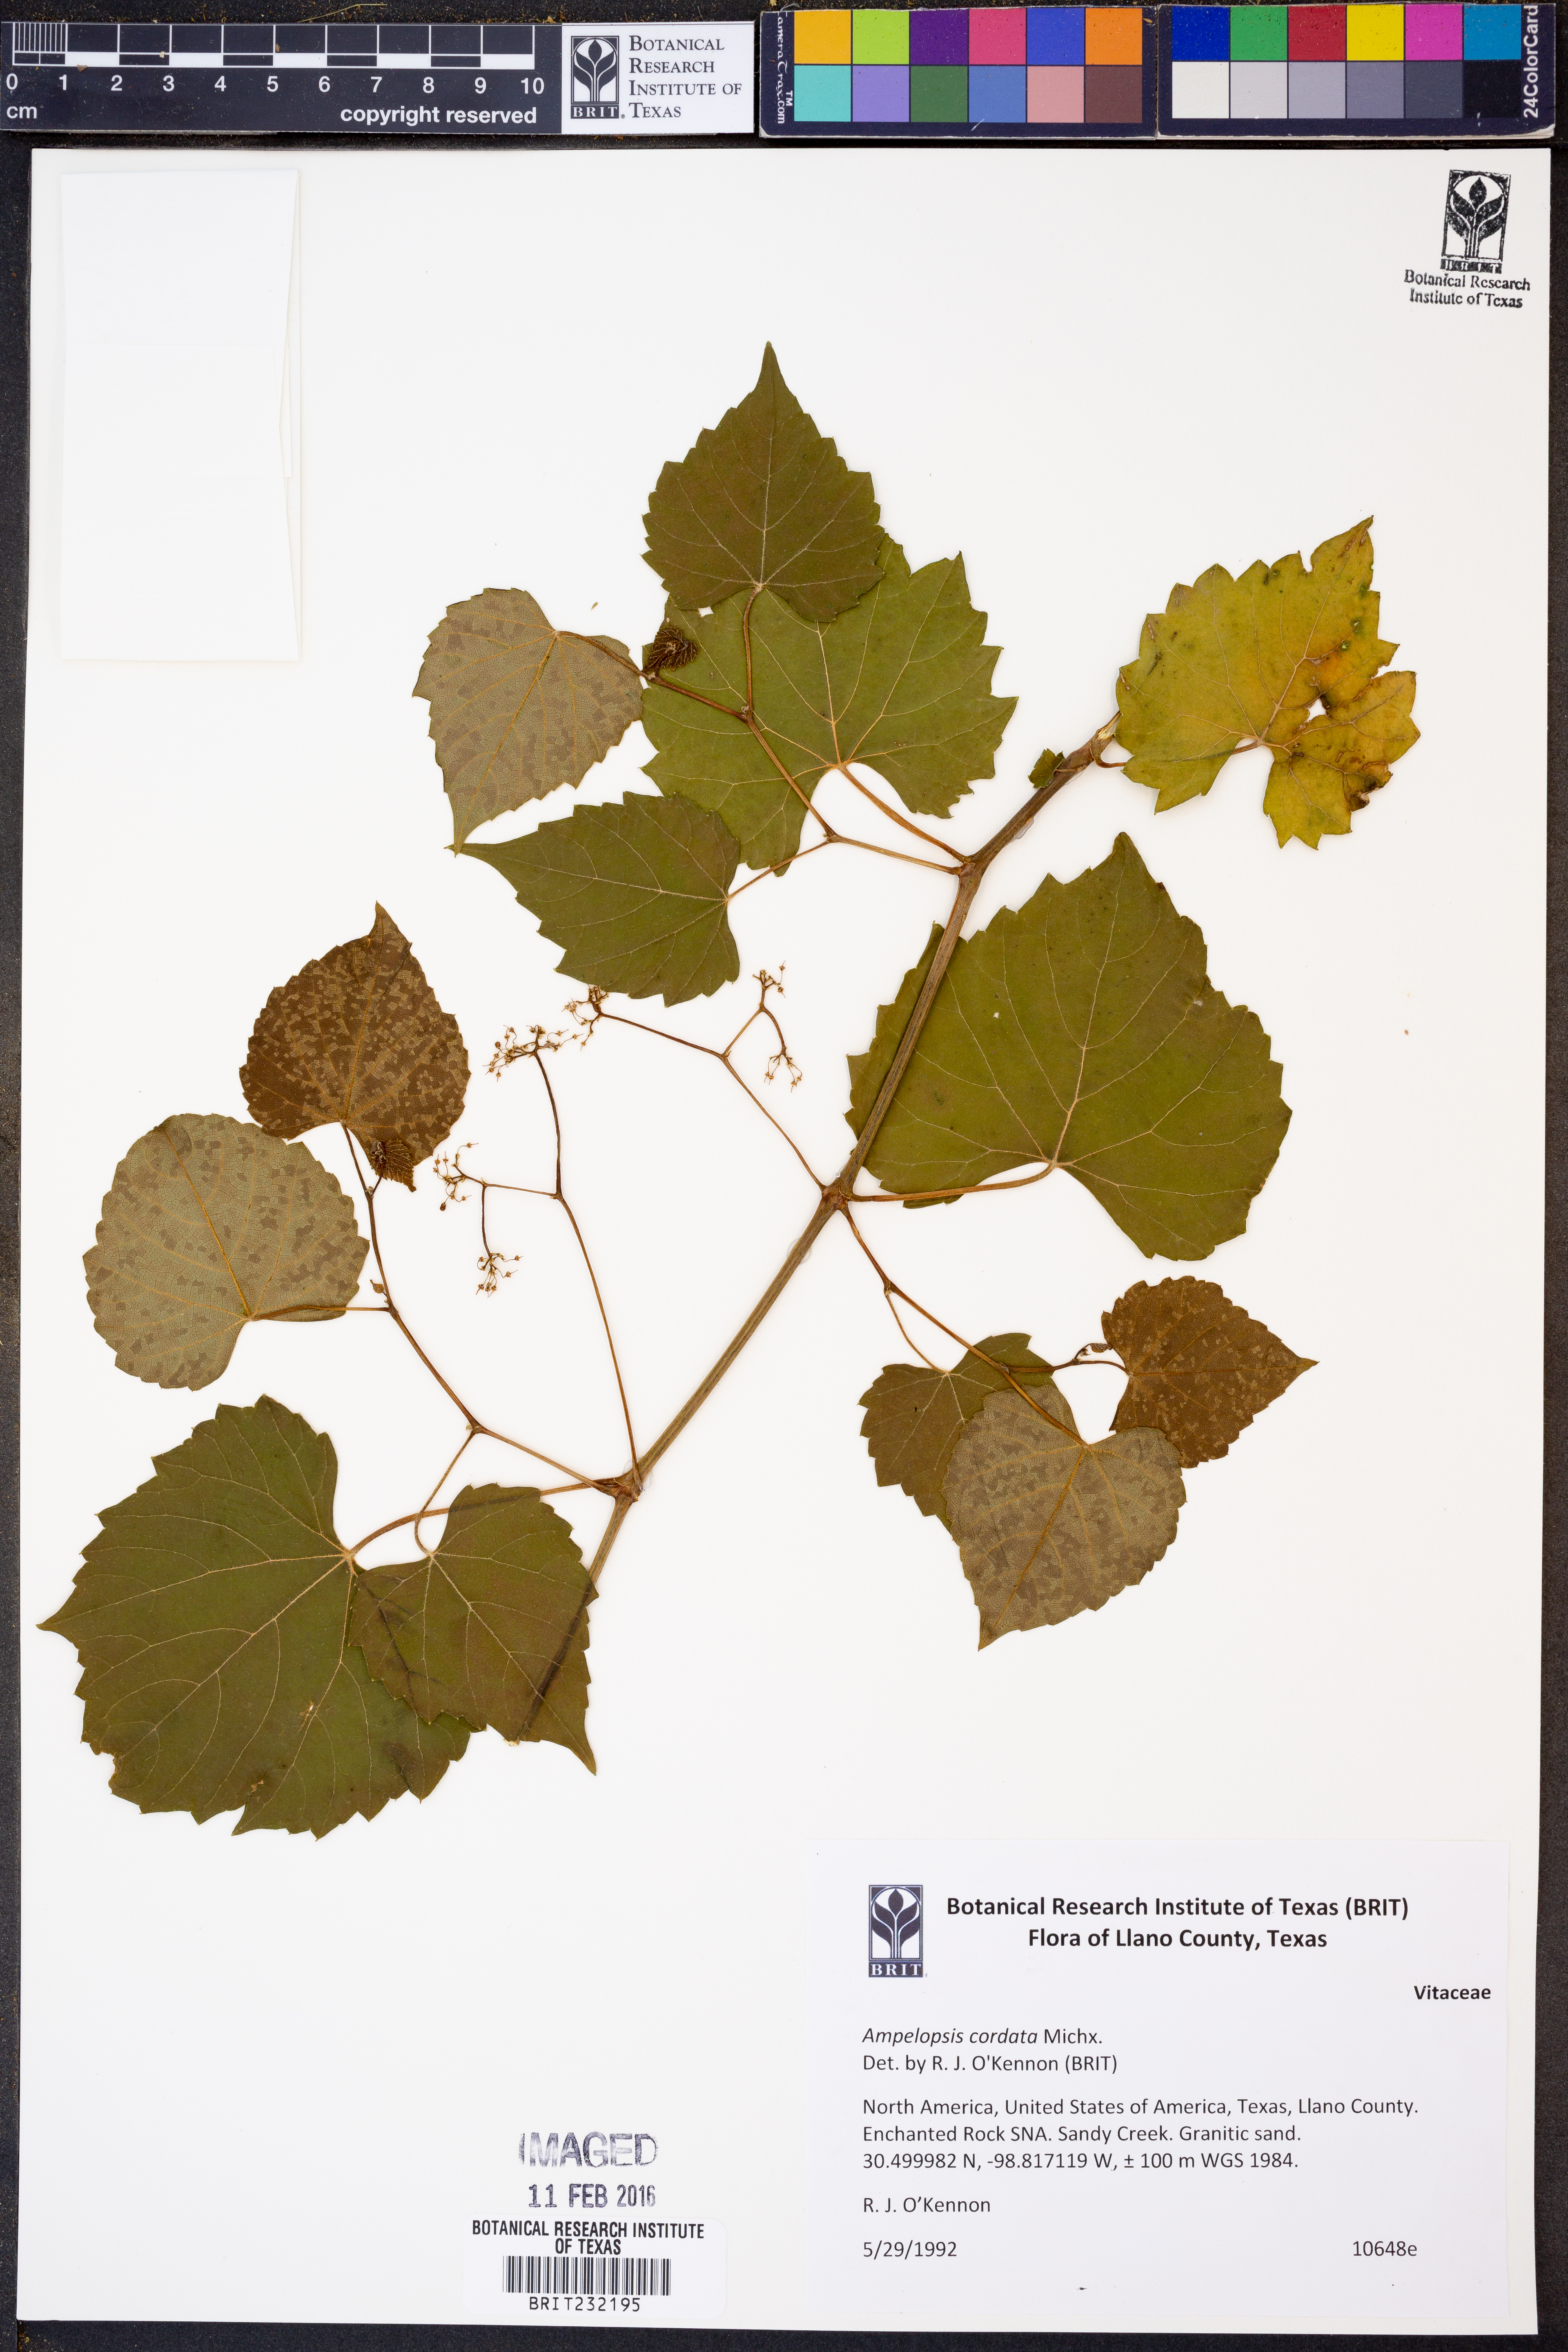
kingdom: Plantae
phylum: Tracheophyta
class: Magnoliopsida
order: Vitales
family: Vitaceae
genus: Ampelopsis
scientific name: Ampelopsis cordata
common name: Heart-leaf ampelopsis
